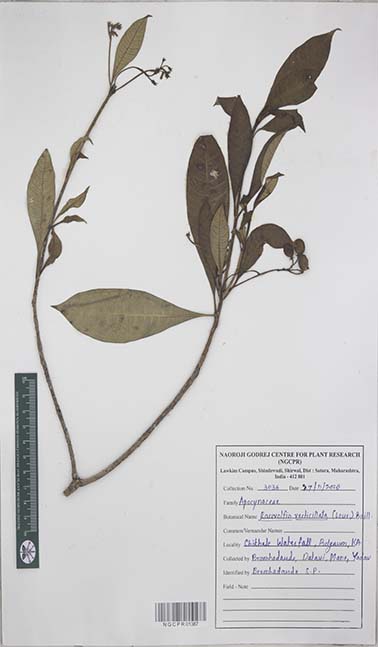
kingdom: Plantae
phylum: Tracheophyta
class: Magnoliopsida
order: Gentianales
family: Apocynaceae
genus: Rauvolfia
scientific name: Rauvolfia verticillata
